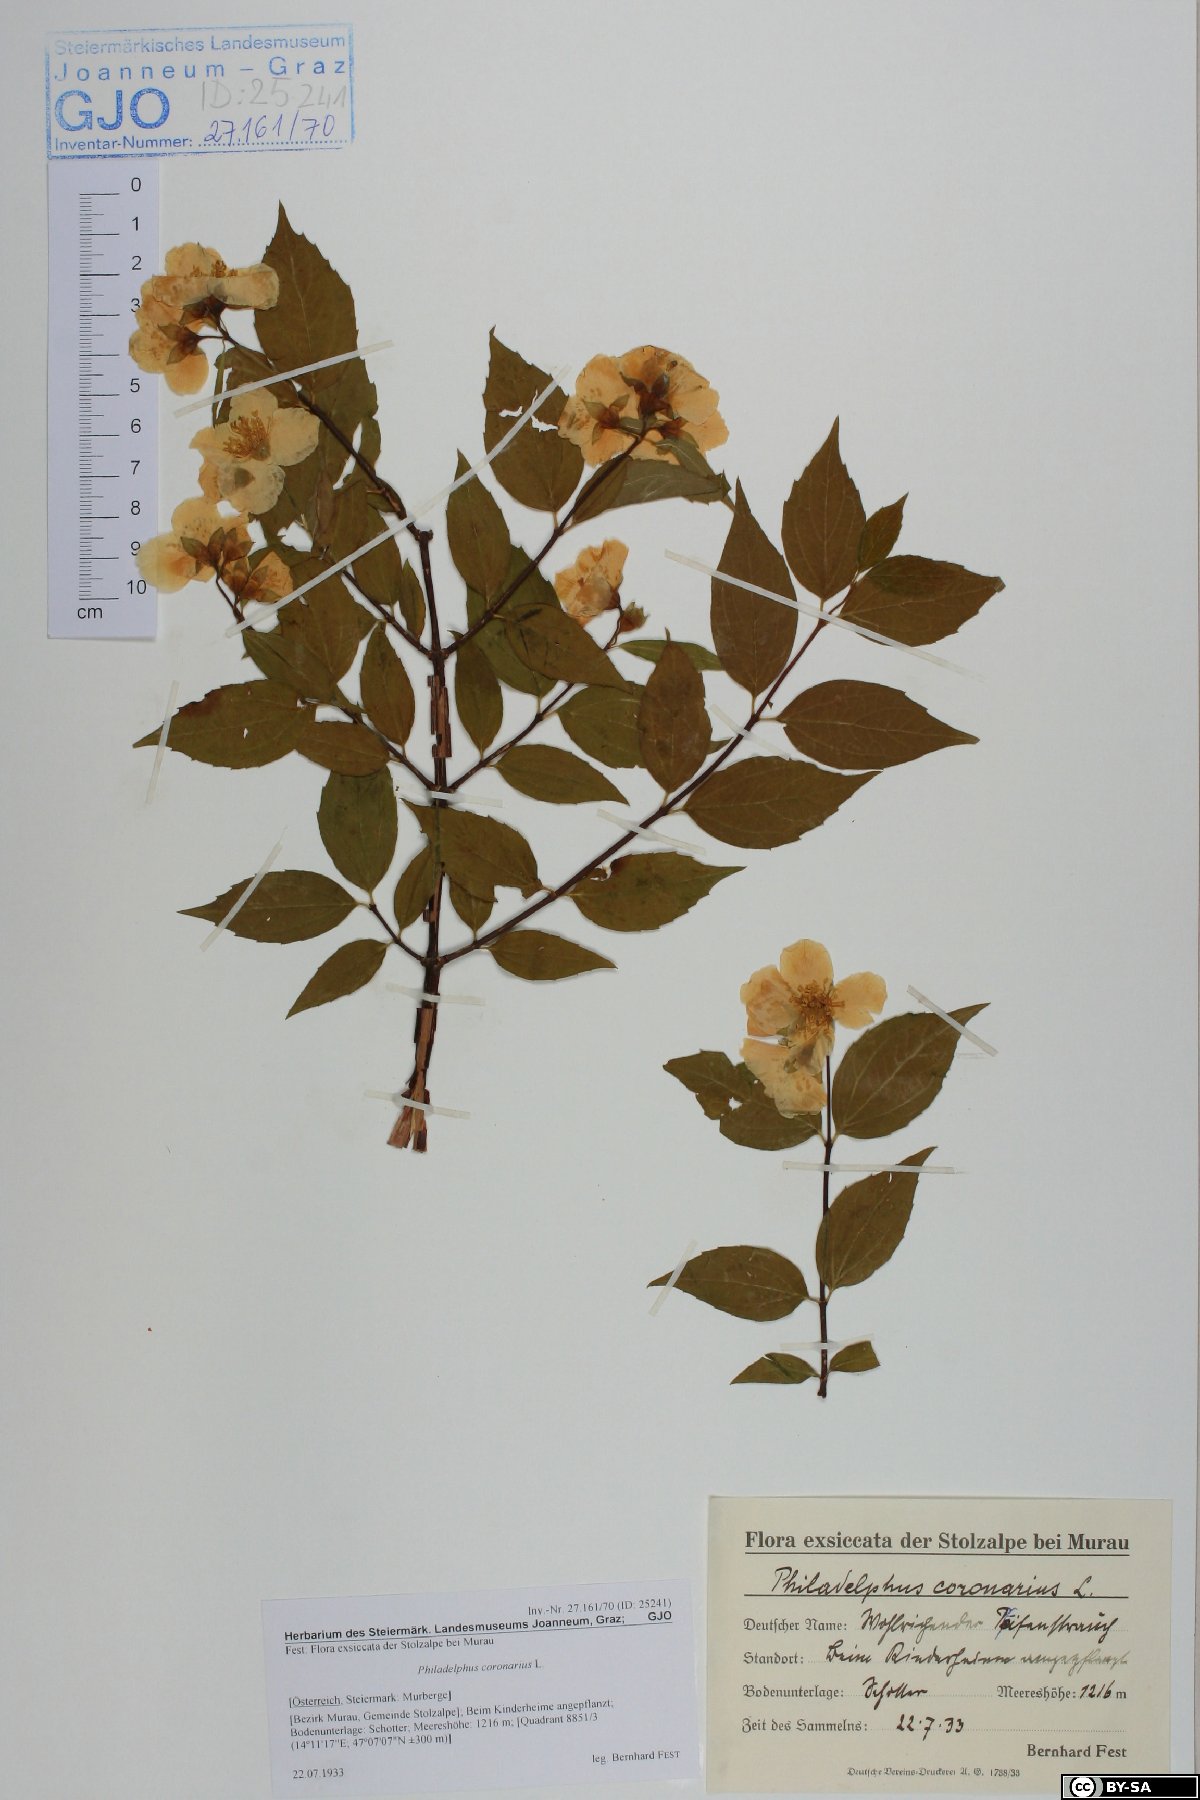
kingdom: Plantae
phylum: Tracheophyta
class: Magnoliopsida
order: Cornales
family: Hydrangeaceae
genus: Philadelphus
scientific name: Philadelphus coronarius
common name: Mock orange
